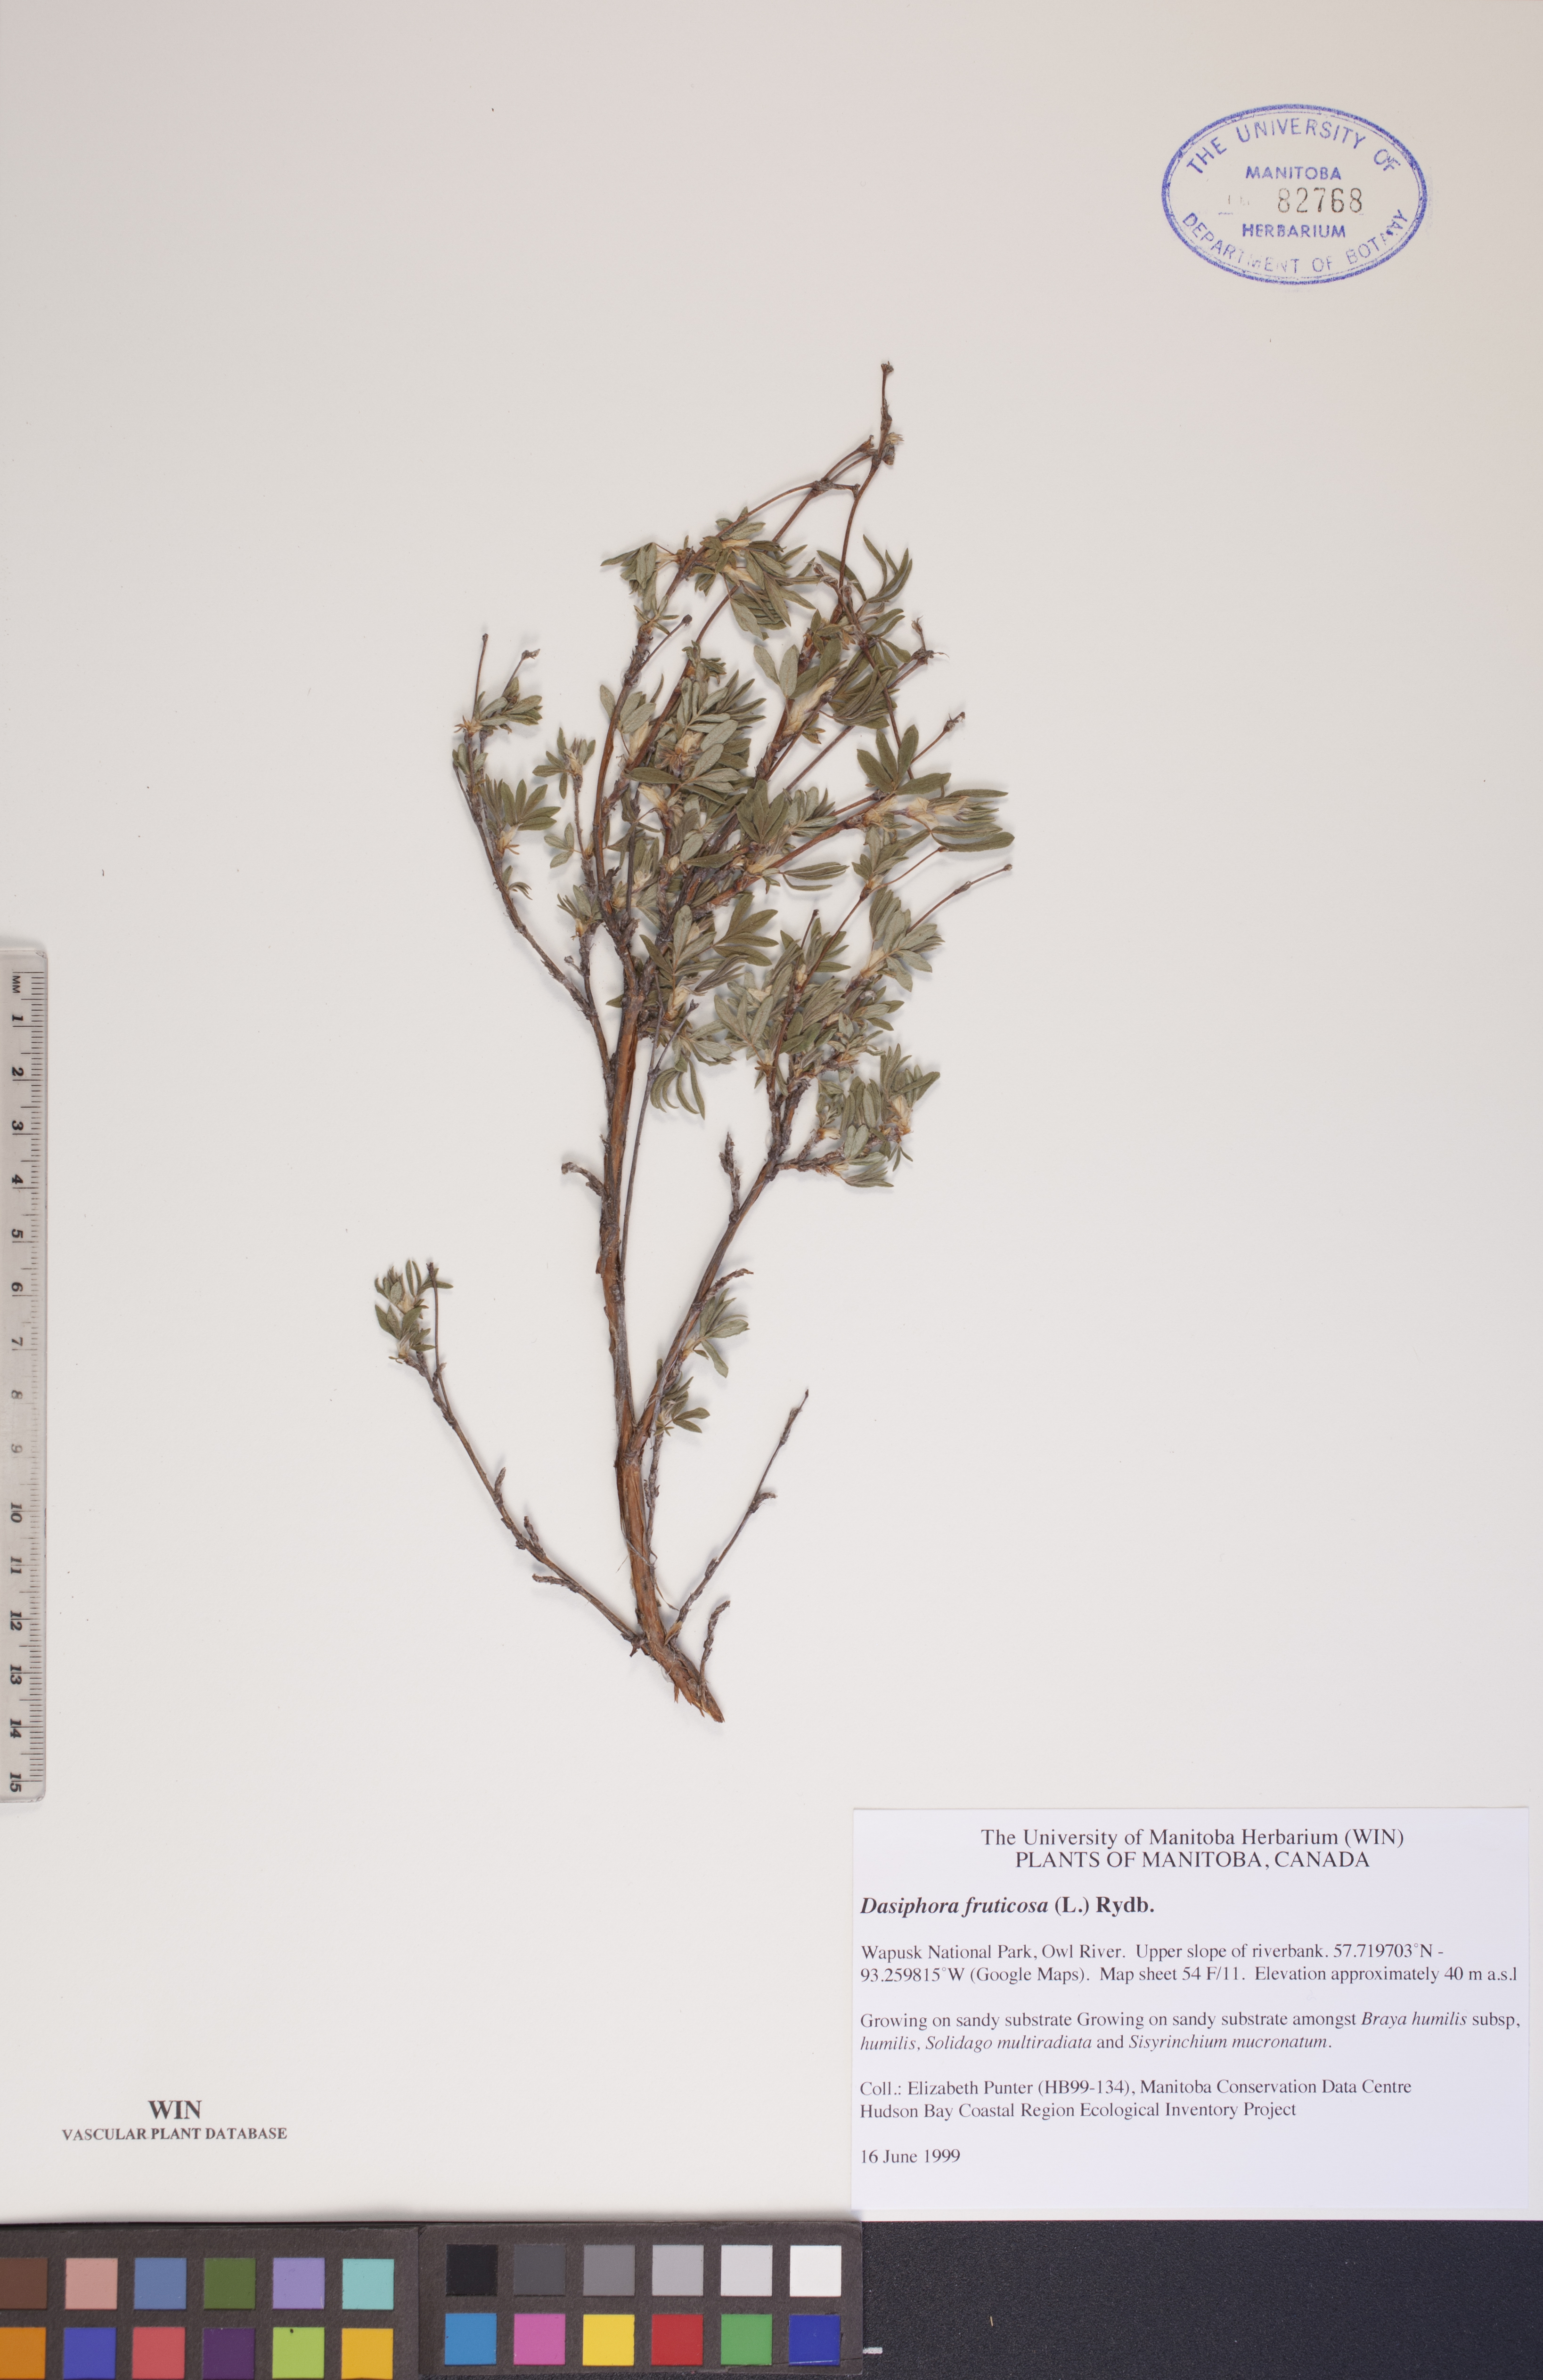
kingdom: Plantae
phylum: Tracheophyta
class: Magnoliopsida
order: Rosales
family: Rosaceae
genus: Dasiphora
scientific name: Dasiphora fruticosa
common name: Shrubby cinquefoil
